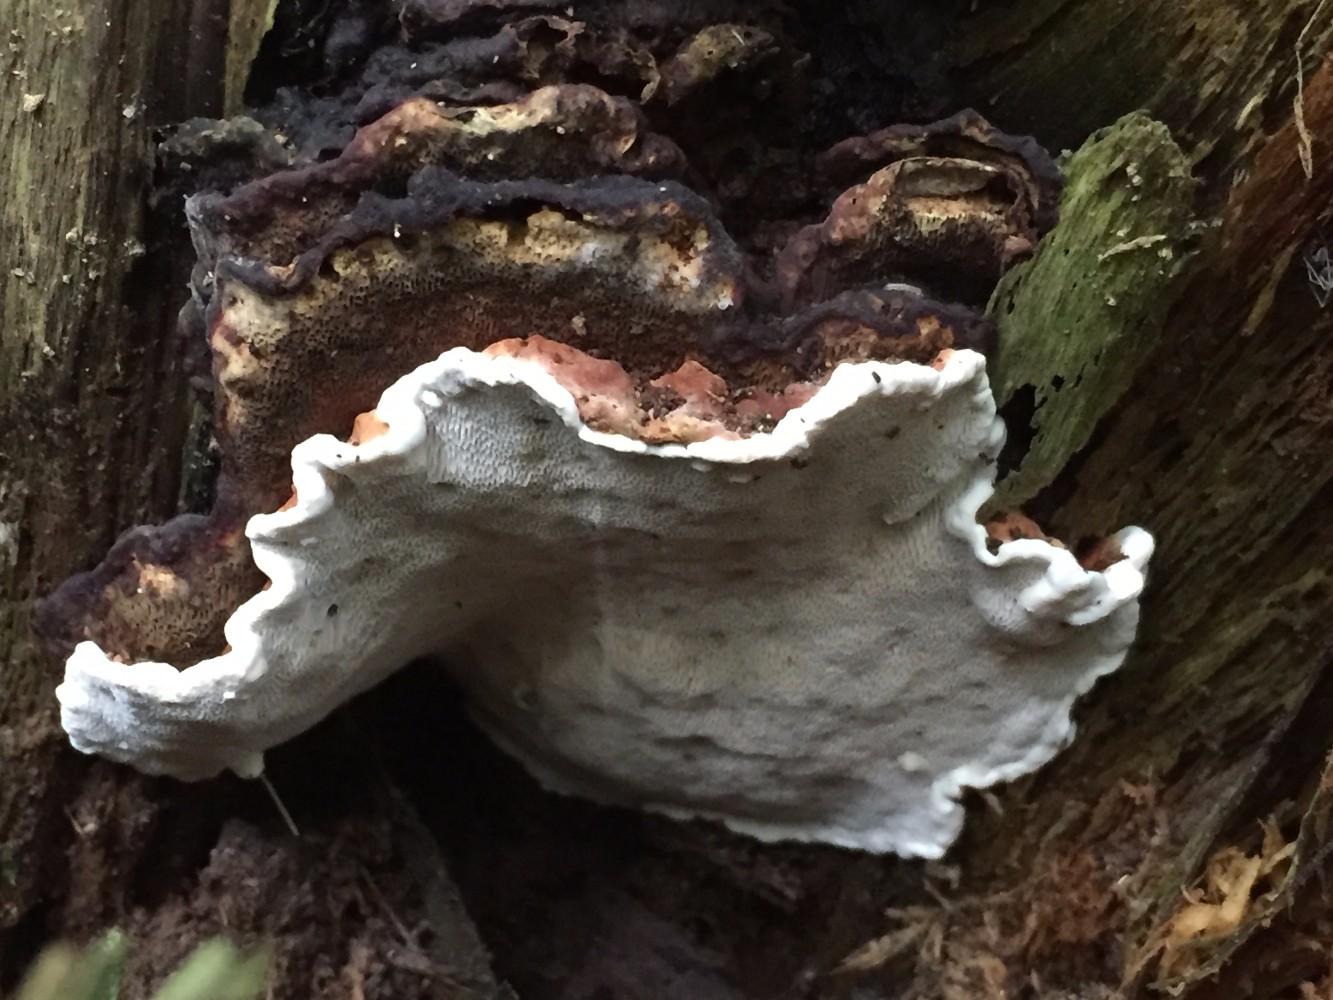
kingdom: Fungi
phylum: Basidiomycota
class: Agaricomycetes
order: Russulales
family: Bondarzewiaceae
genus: Heterobasidion
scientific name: Heterobasidion annosum
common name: almindelig rodfordærver
